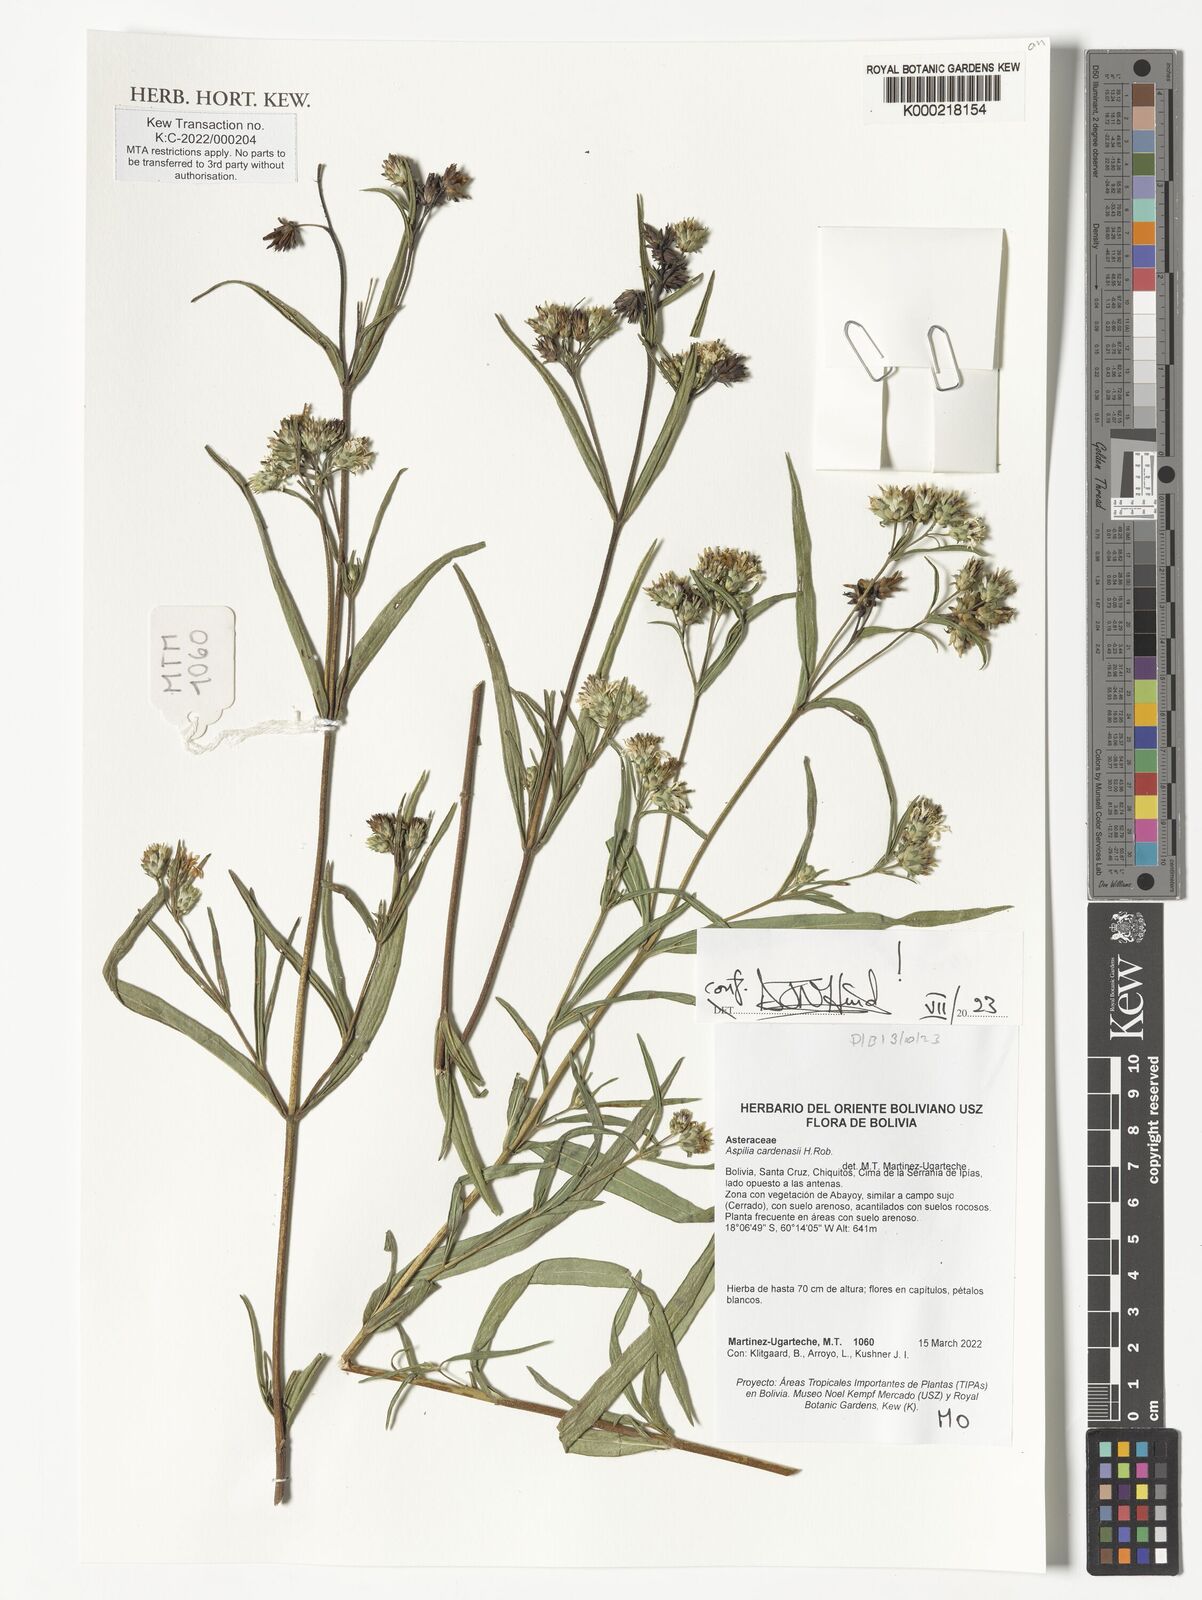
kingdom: Plantae
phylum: Tracheophyta
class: Magnoliopsida
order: Asterales
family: Asteraceae
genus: Wedelia
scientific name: Wedelia cardenasii
